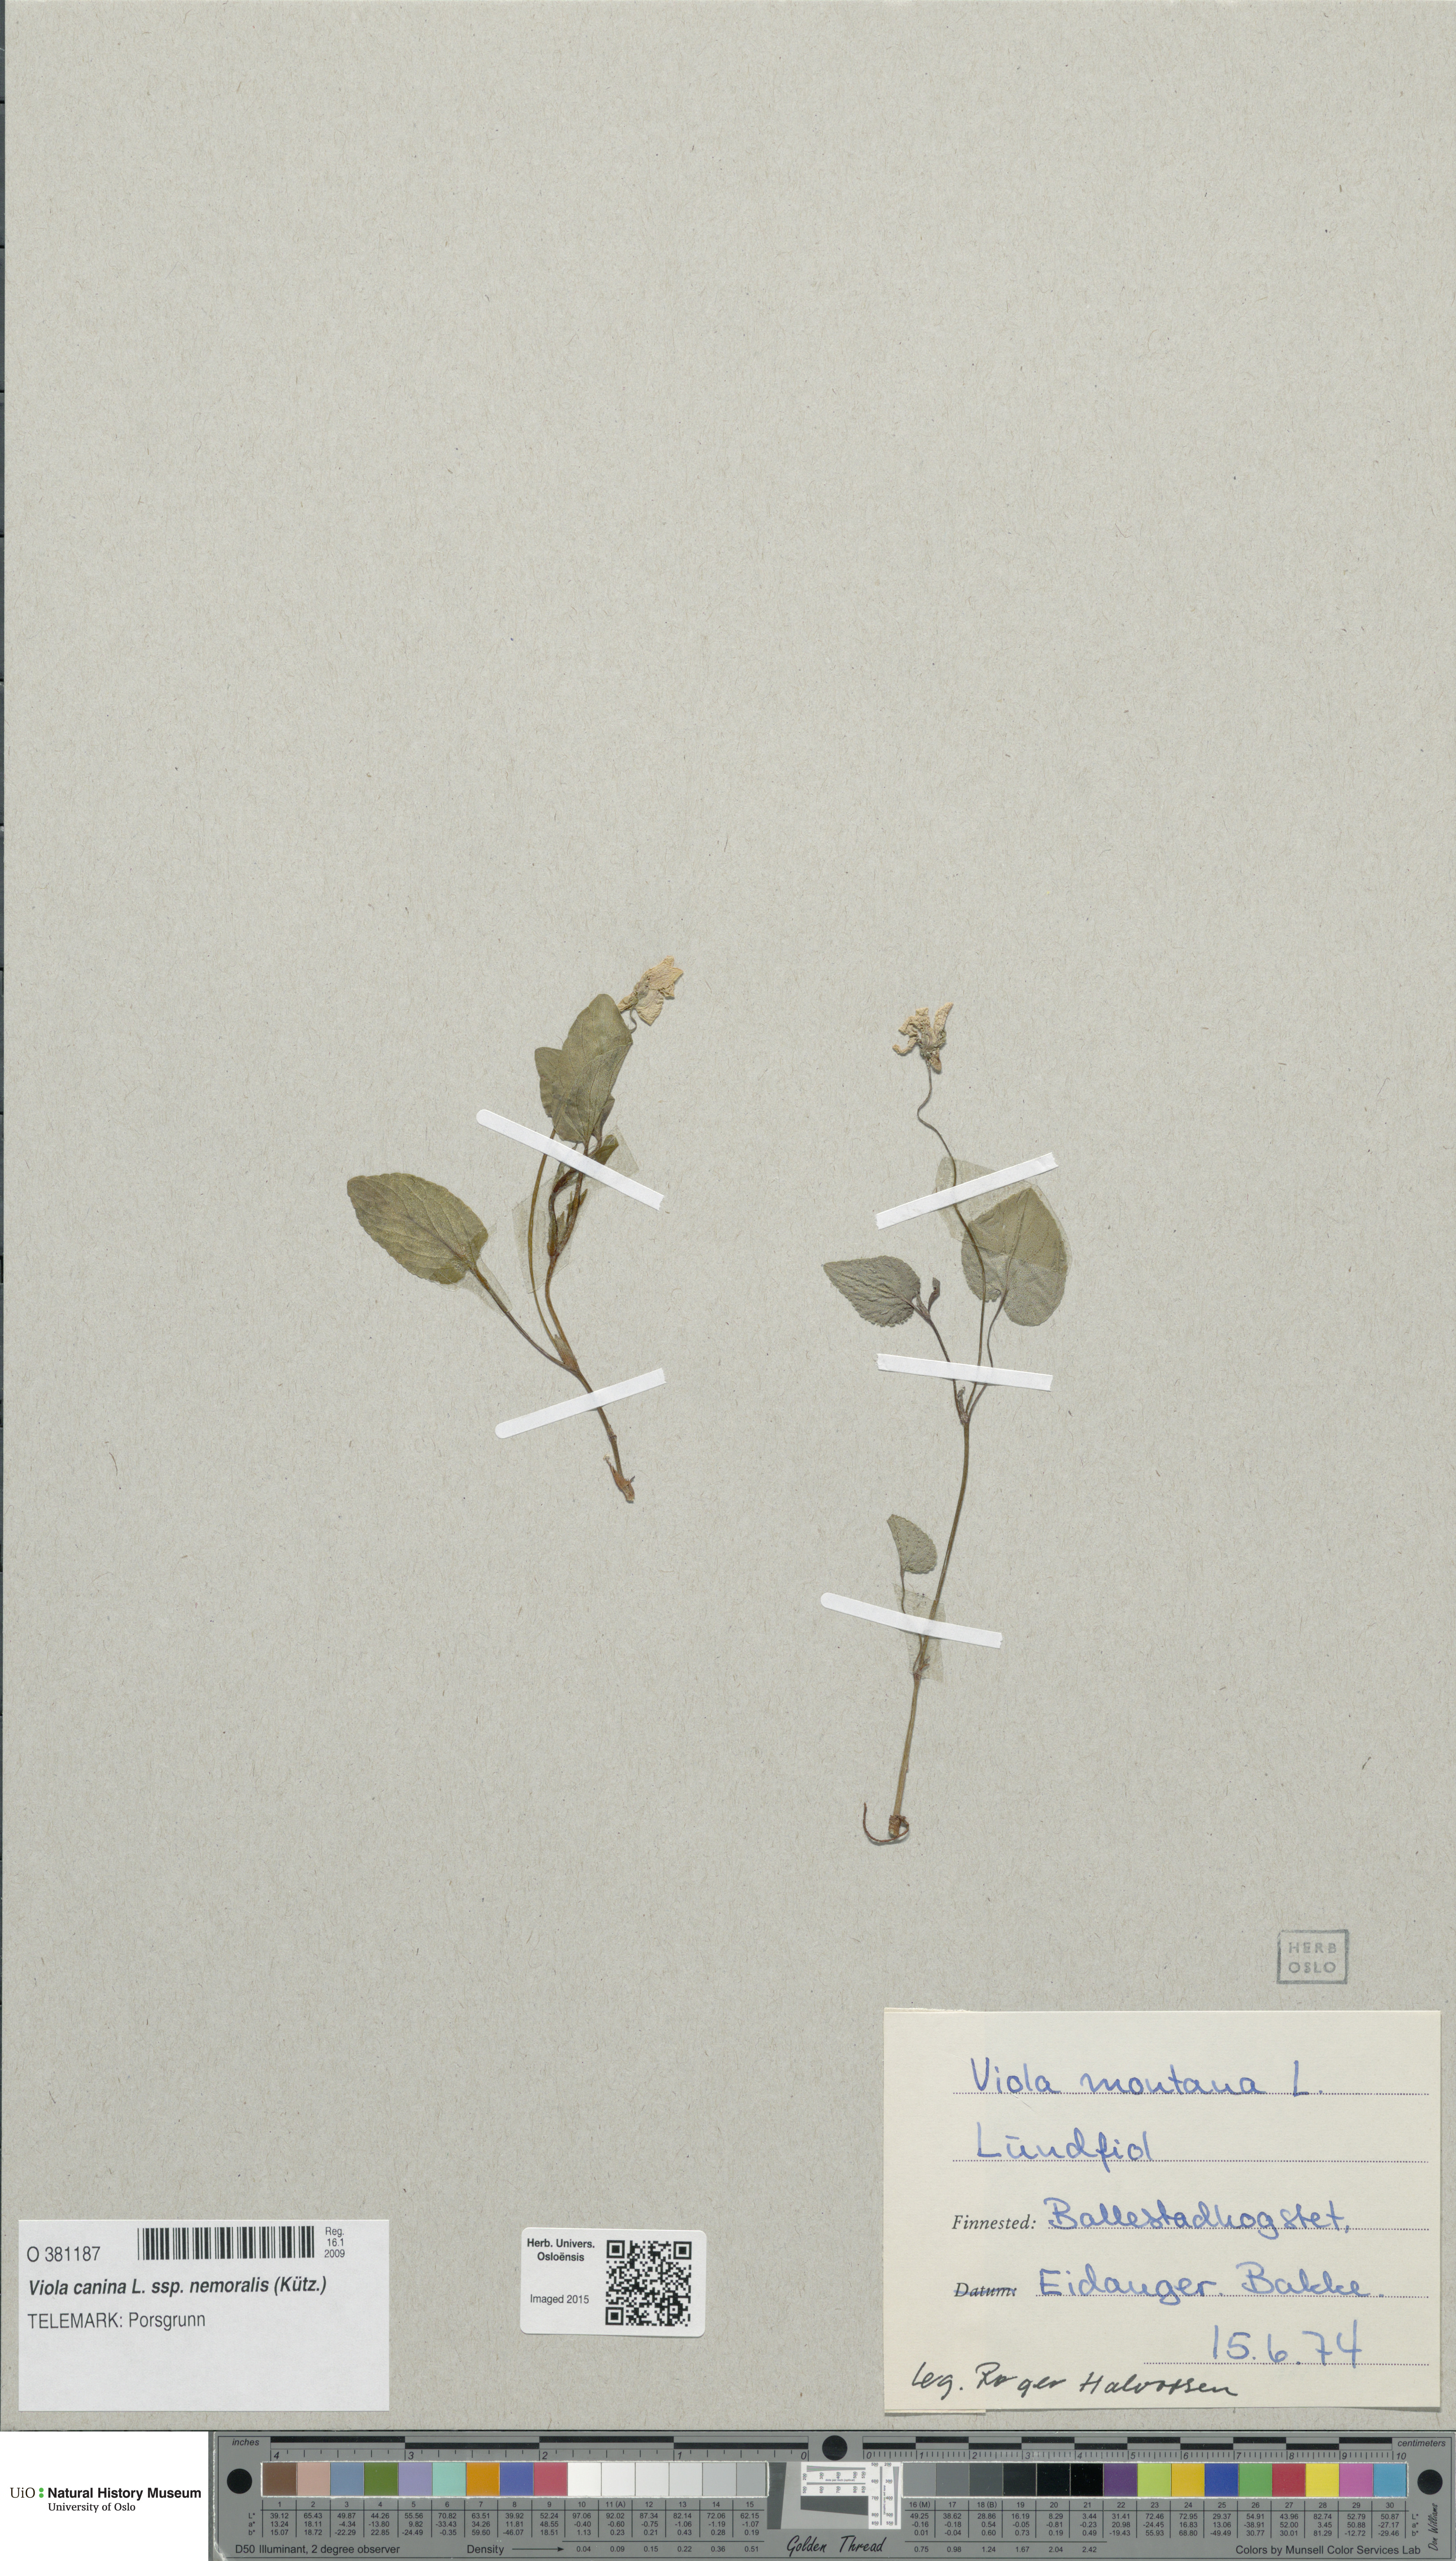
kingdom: Plantae
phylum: Tracheophyta
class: Magnoliopsida
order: Malpighiales
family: Violaceae
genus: Viola
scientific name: Viola ruppii
